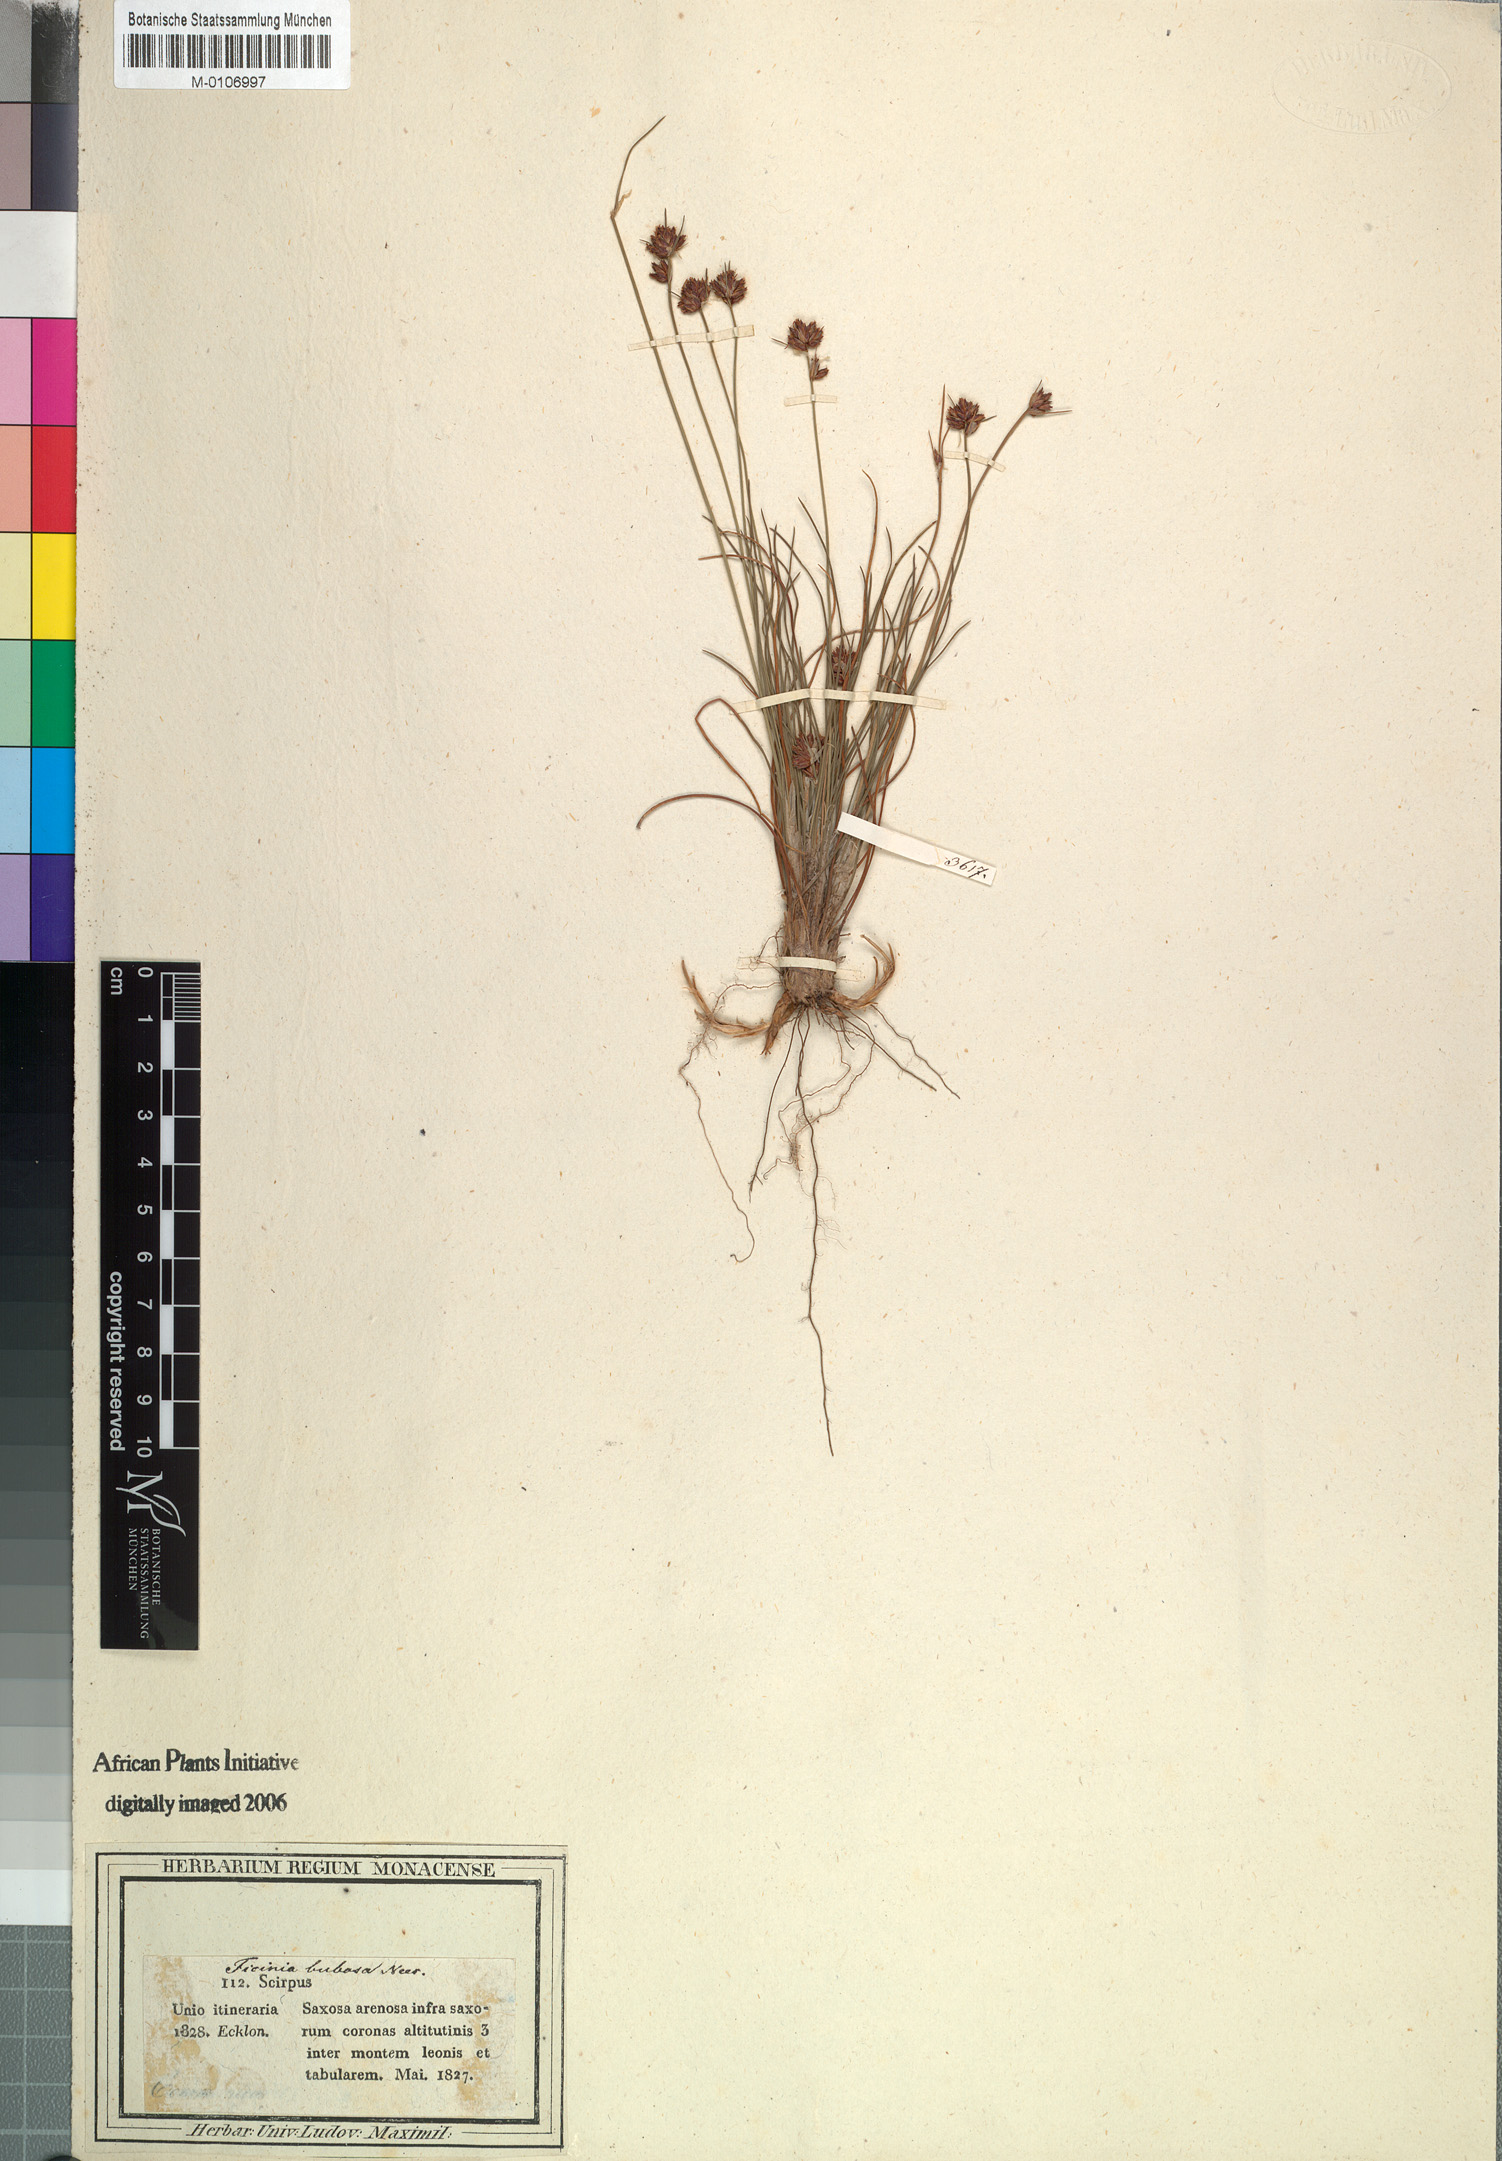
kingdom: Plantae
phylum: Tracheophyta
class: Liliopsida
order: Poales
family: Cyperaceae
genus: Ficinia
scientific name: Ficinia bulbosa
